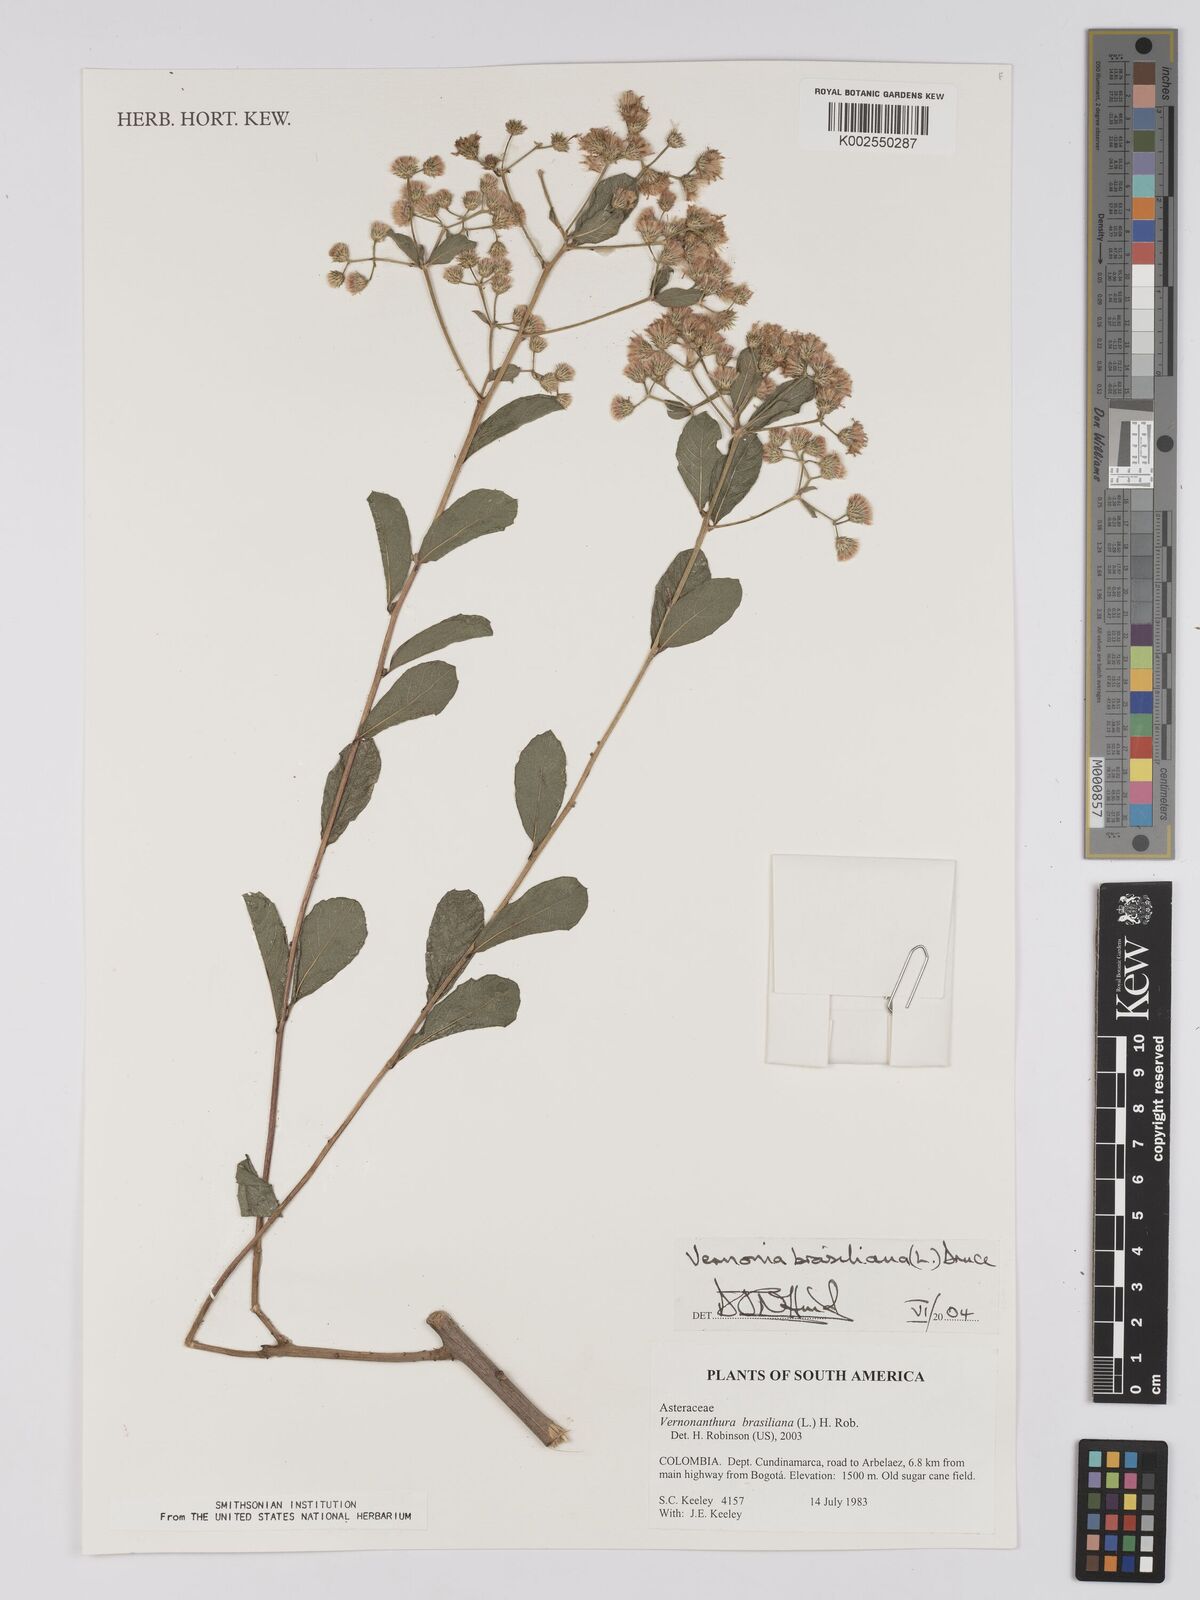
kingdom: Plantae
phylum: Tracheophyta
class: Magnoliopsida
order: Asterales
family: Asteraceae
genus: Vernonanthura
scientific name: Vernonanthura brasiliana
